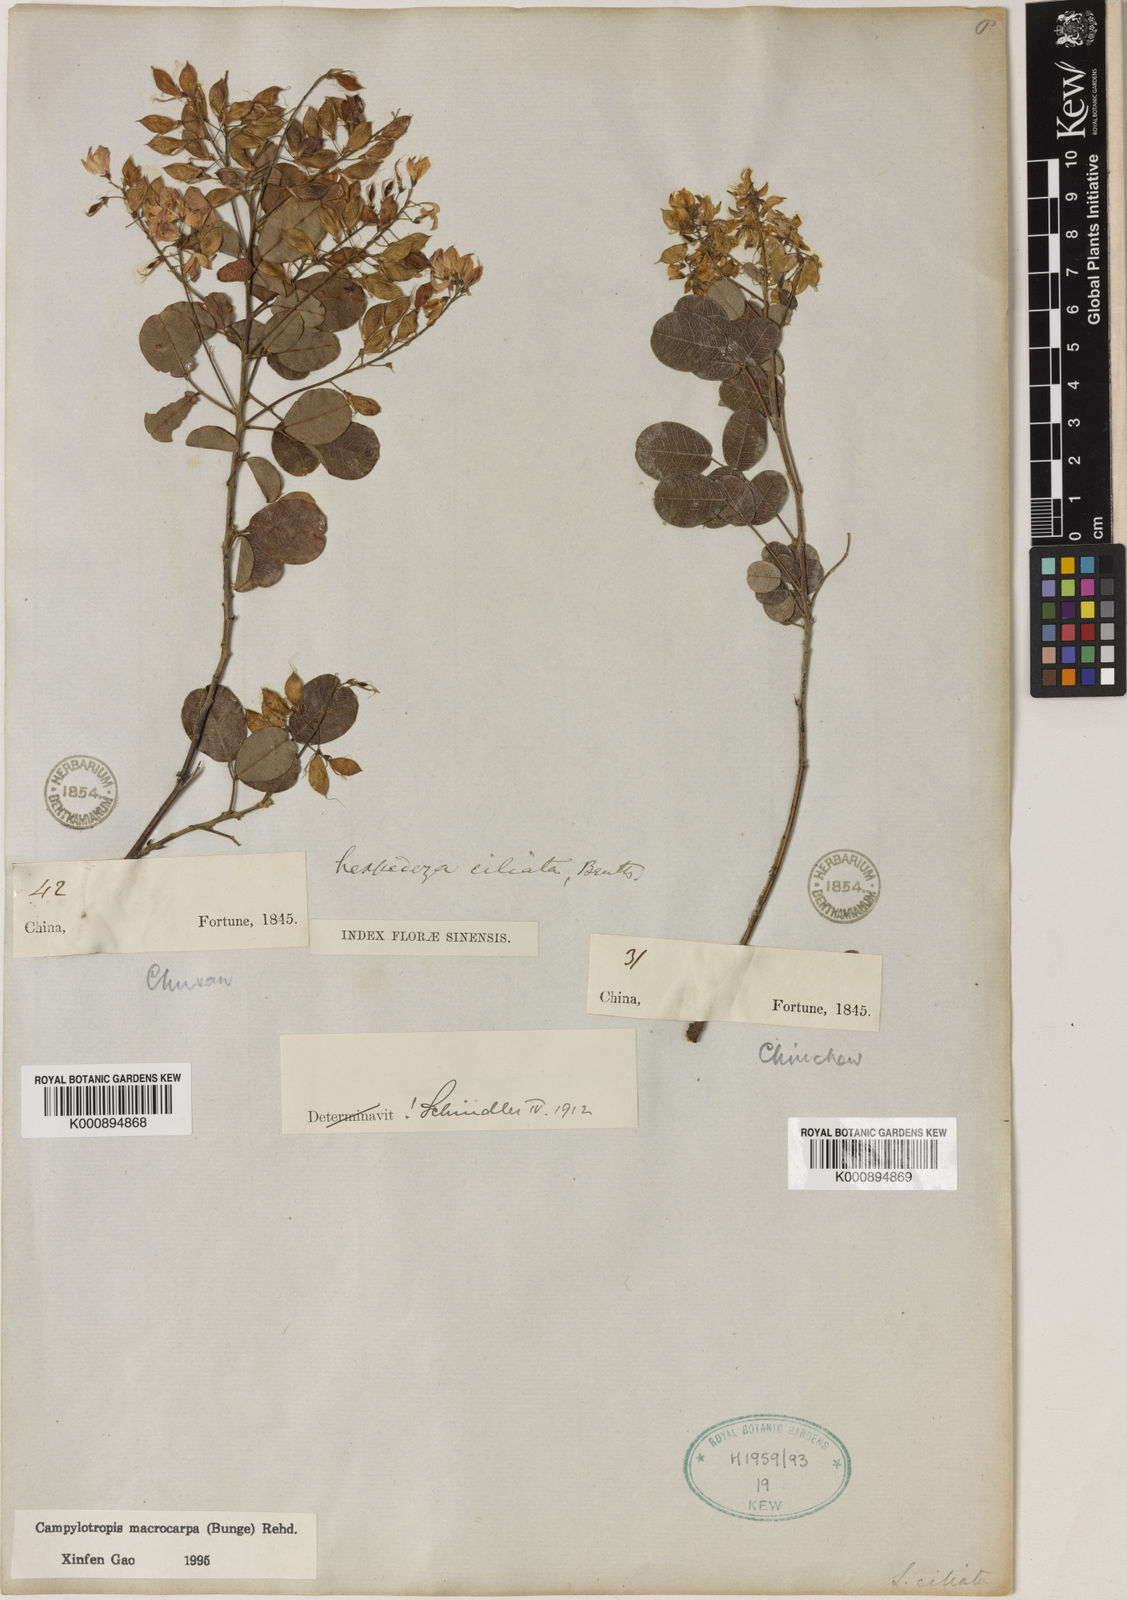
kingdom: Plantae
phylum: Tracheophyta
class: Magnoliopsida
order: Fabales
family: Fabaceae
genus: Campylotropis
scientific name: Campylotropis macrocarpa
